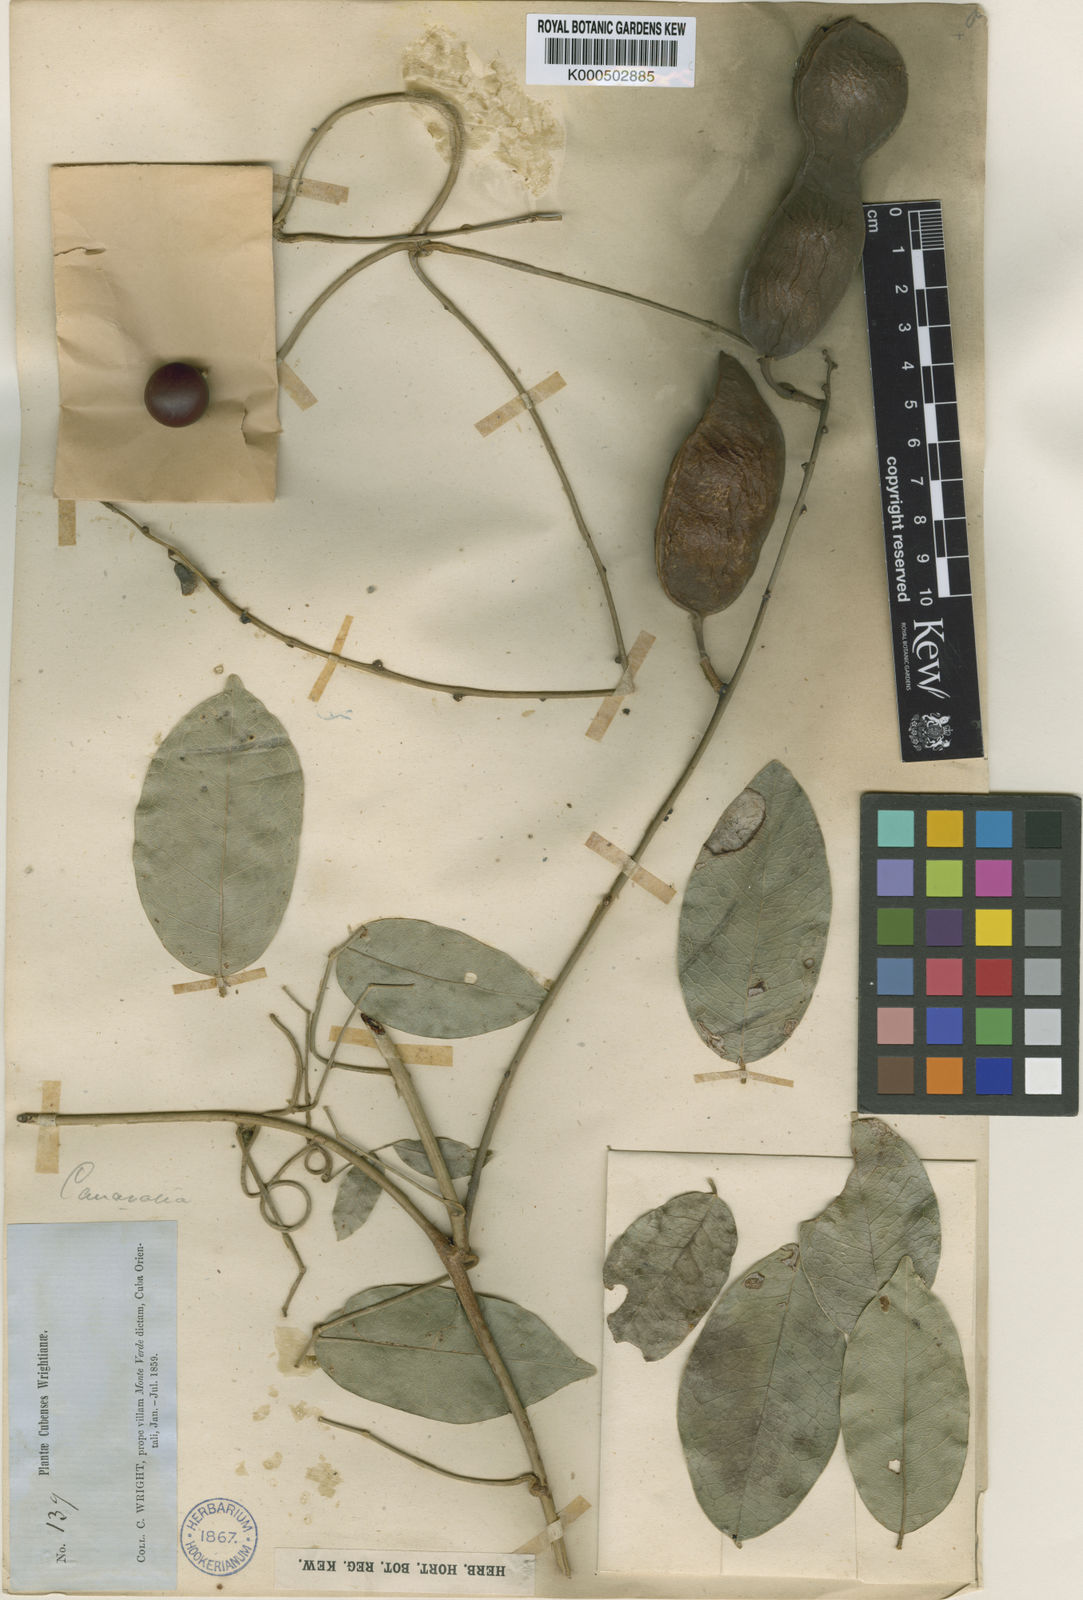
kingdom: Plantae
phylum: Tracheophyta
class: Magnoliopsida
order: Fabales
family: Fabaceae
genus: Canavalia
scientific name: Canavalia nitida
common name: Cathie's-bean
